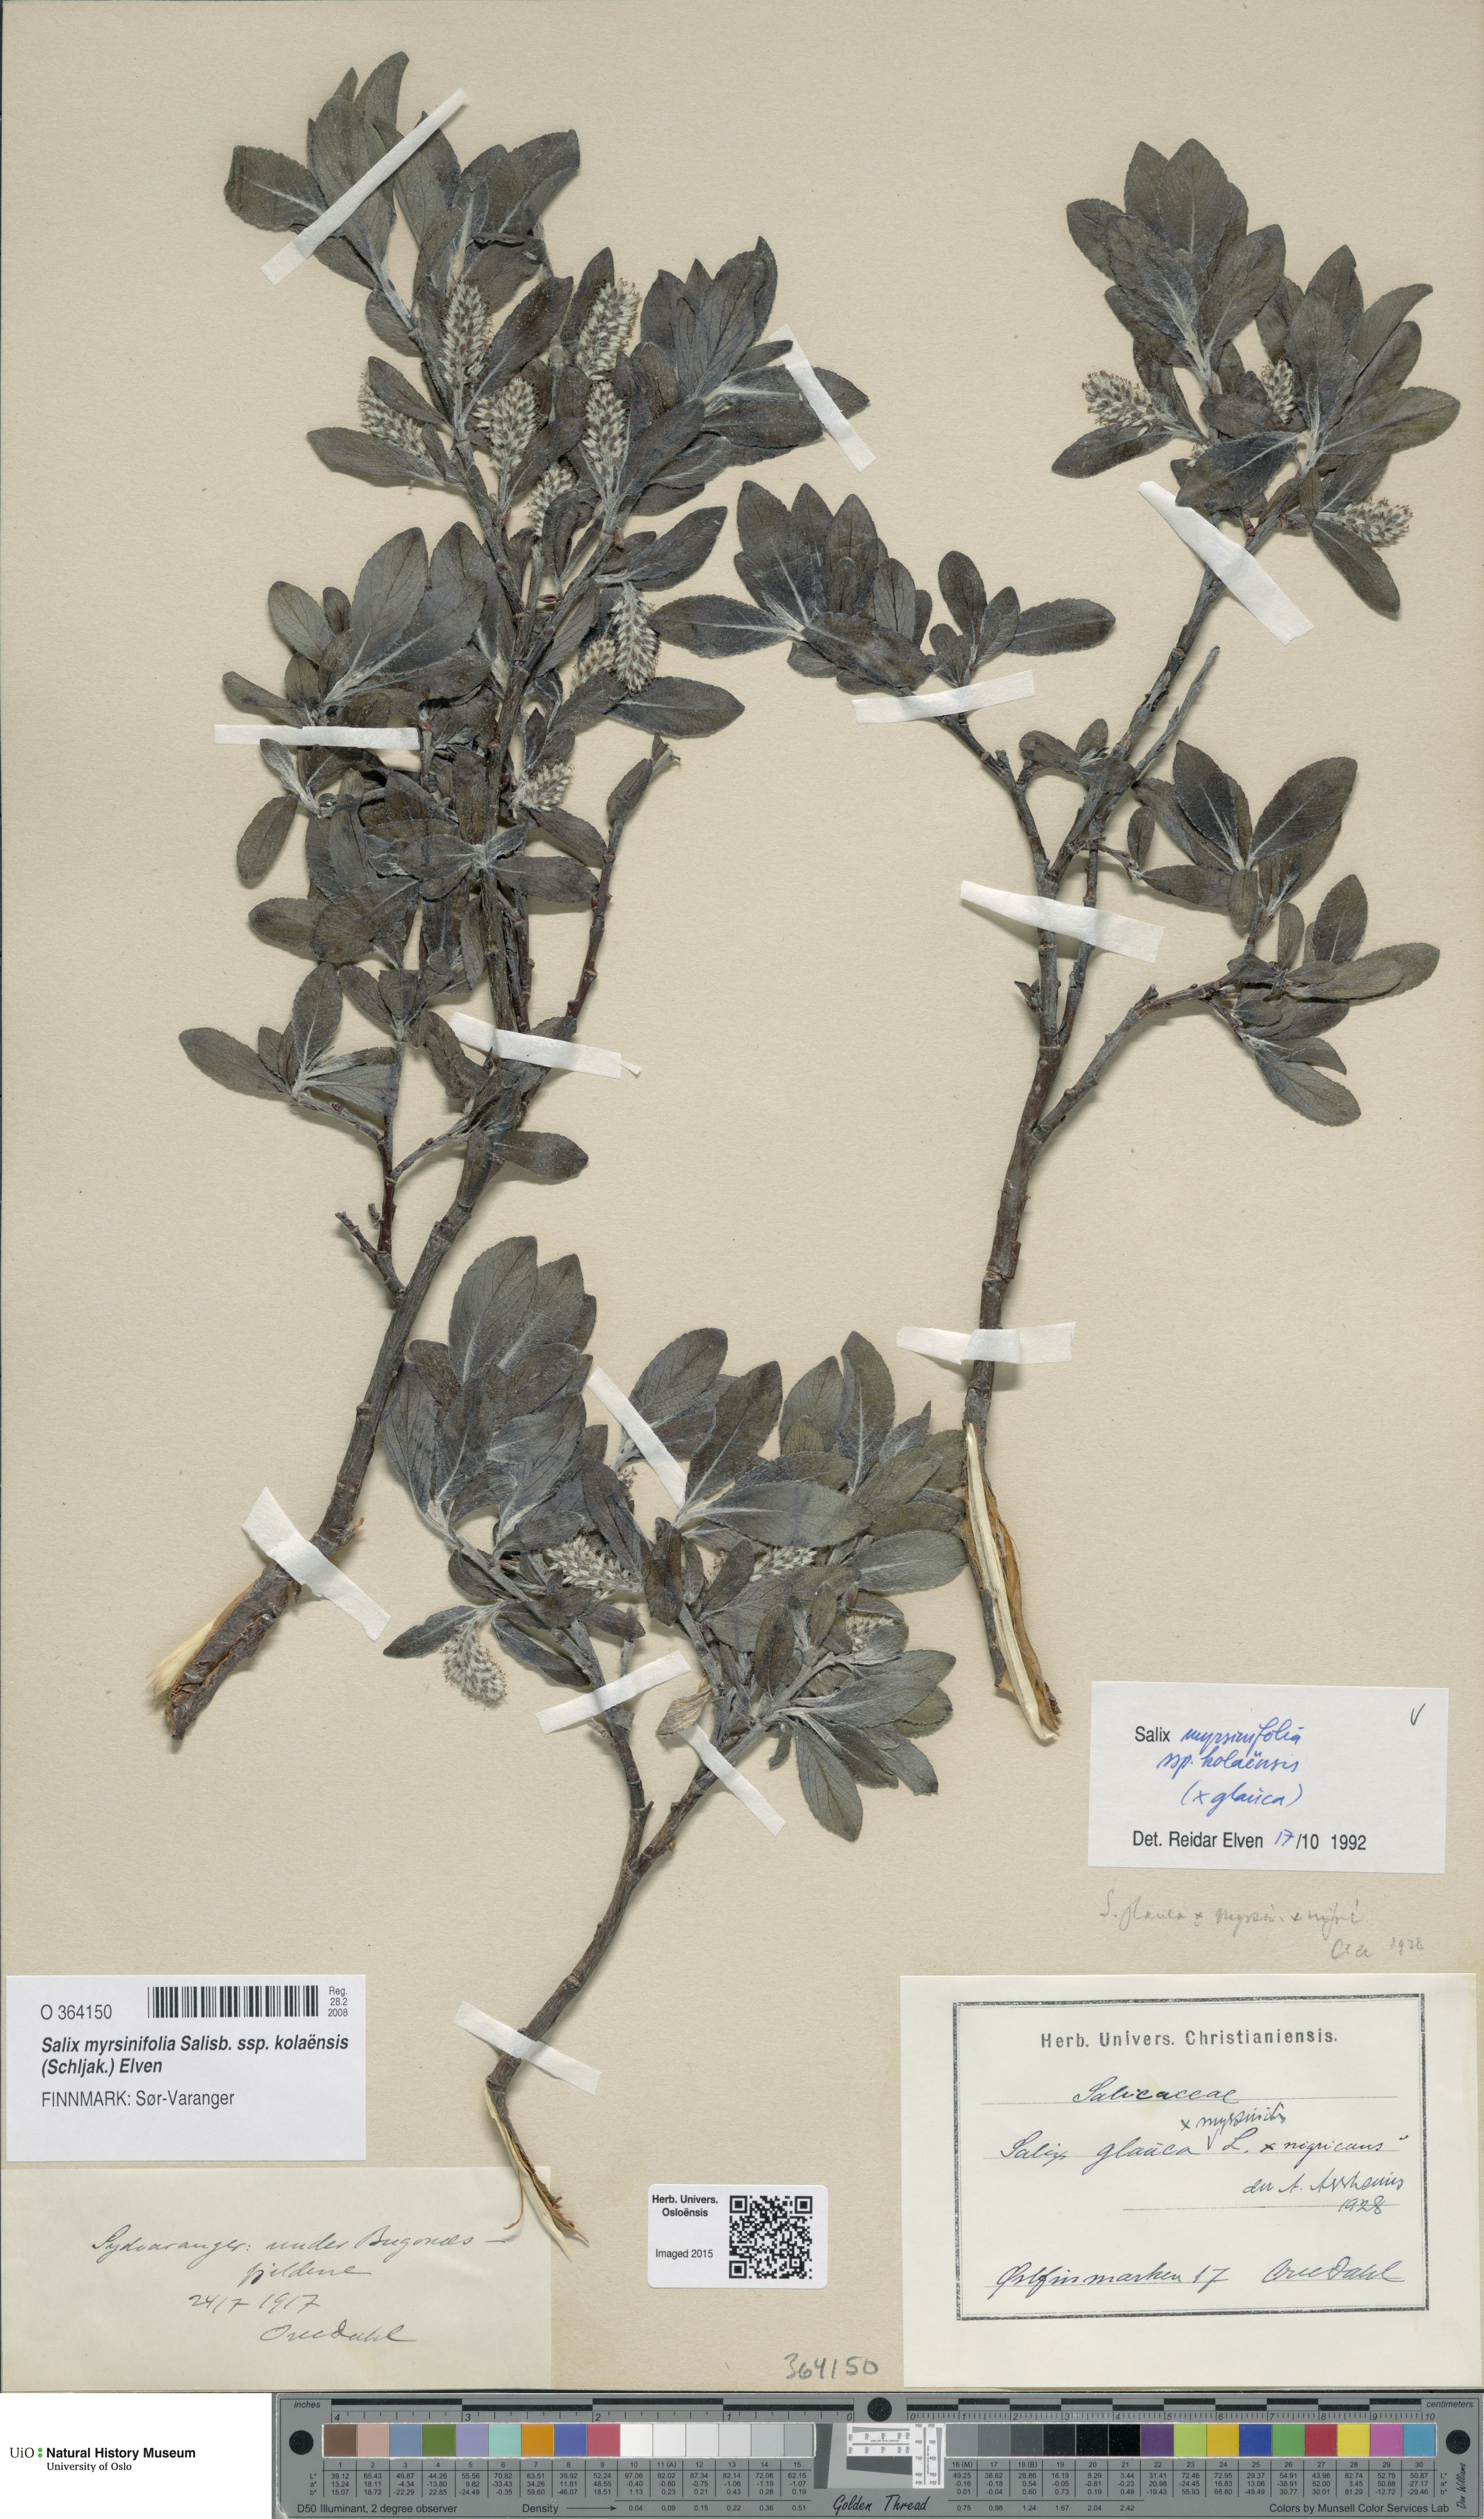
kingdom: Plantae
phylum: Tracheophyta
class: Magnoliopsida
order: Malpighiales
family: Salicaceae
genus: Salix
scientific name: Salix myrsinifolia
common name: Dark-leaved willow
